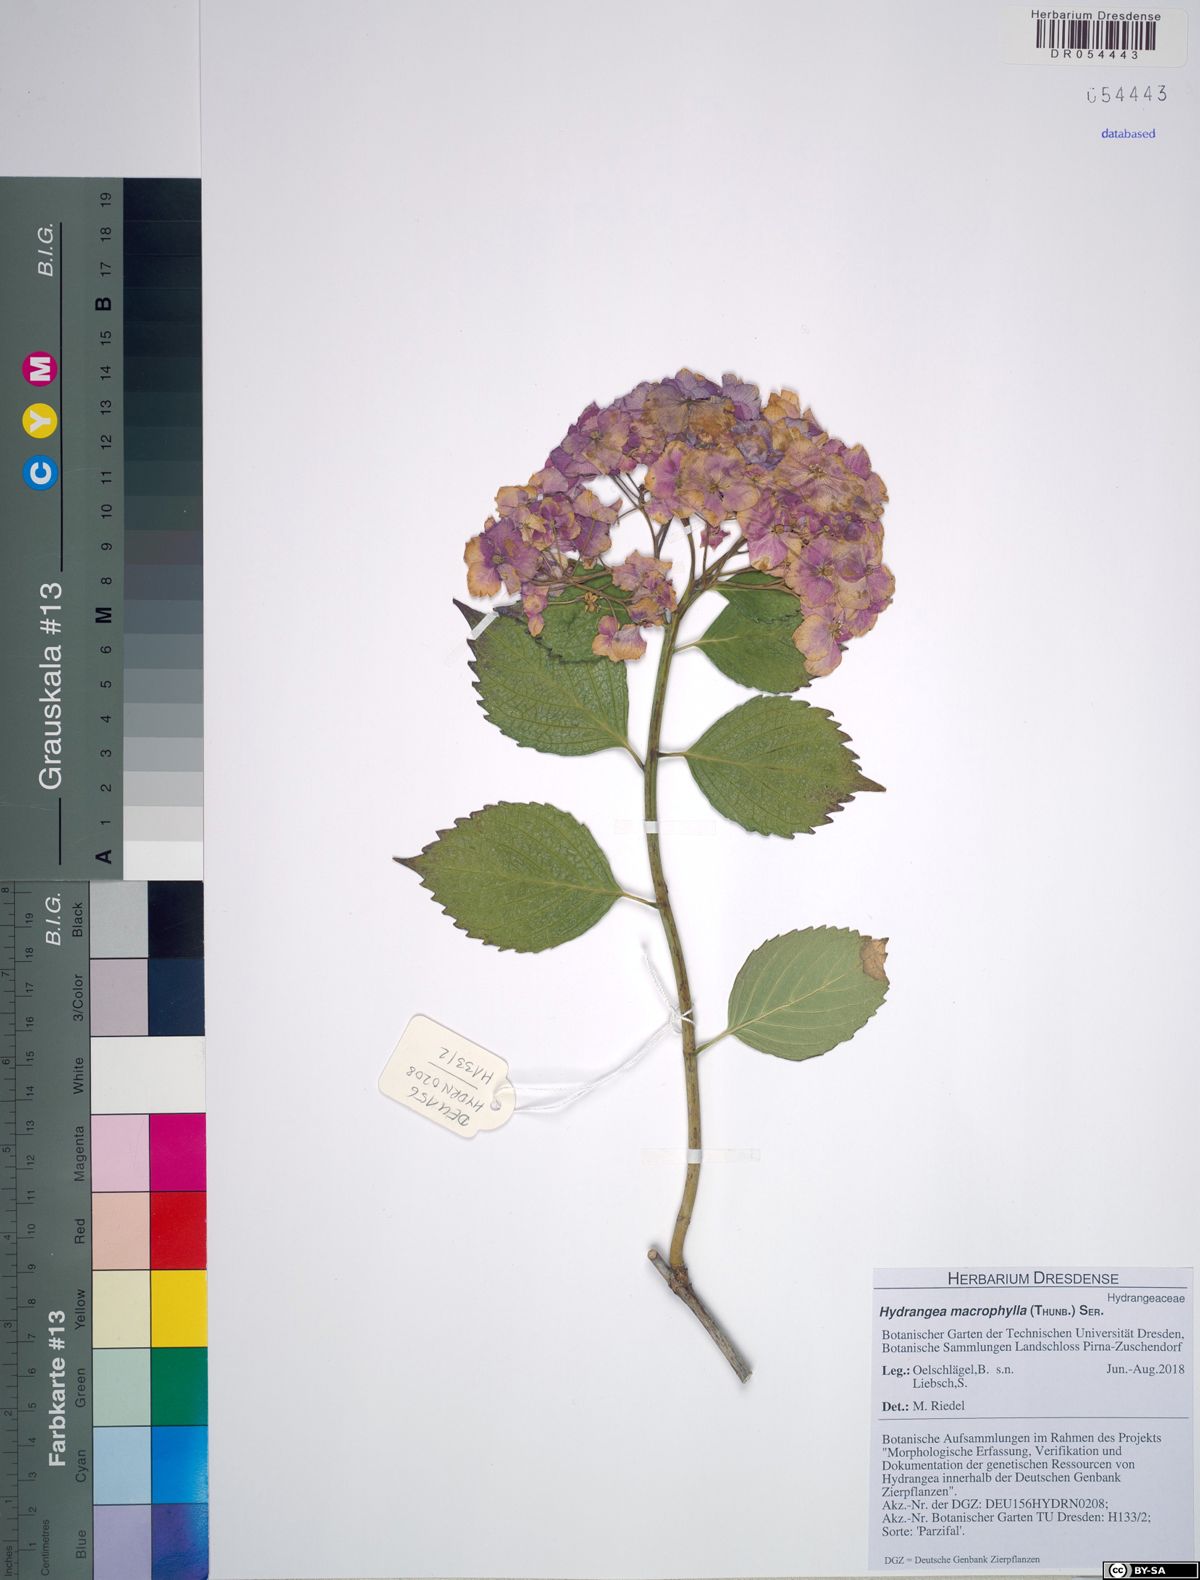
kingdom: Plantae
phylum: Tracheophyta
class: Magnoliopsida
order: Cornales
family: Hydrangeaceae
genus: Hydrangea
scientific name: Hydrangea macrophylla
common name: Hydrangea
